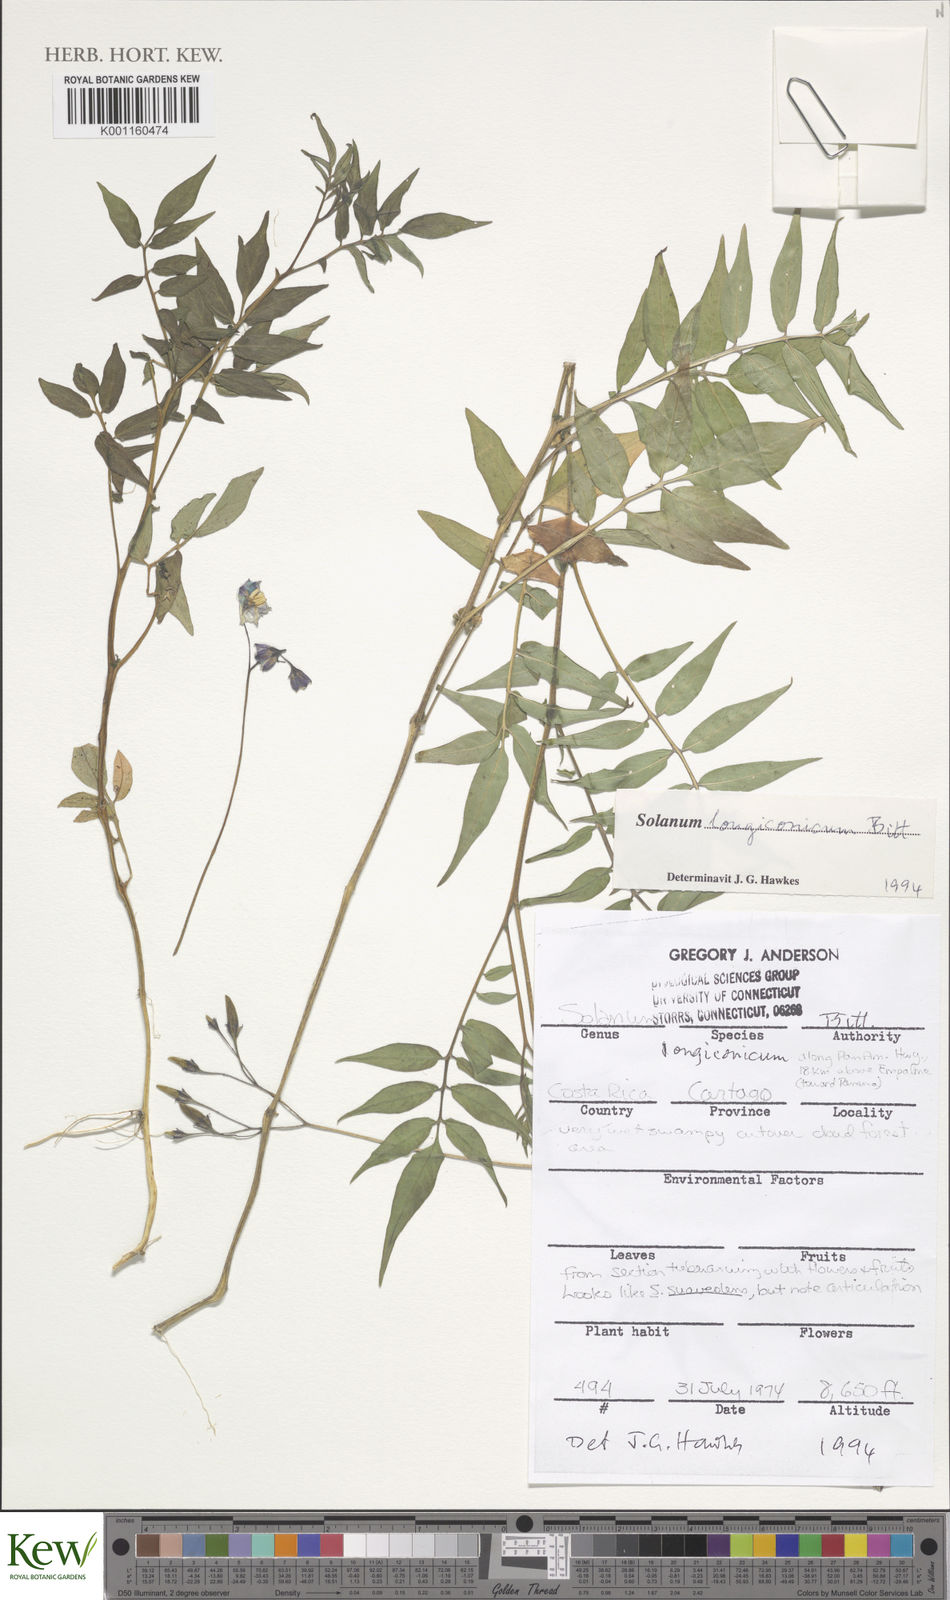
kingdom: Plantae
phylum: Tracheophyta
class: Magnoliopsida
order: Solanales
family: Solanaceae
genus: Solanum
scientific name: Solanum longiconicum
